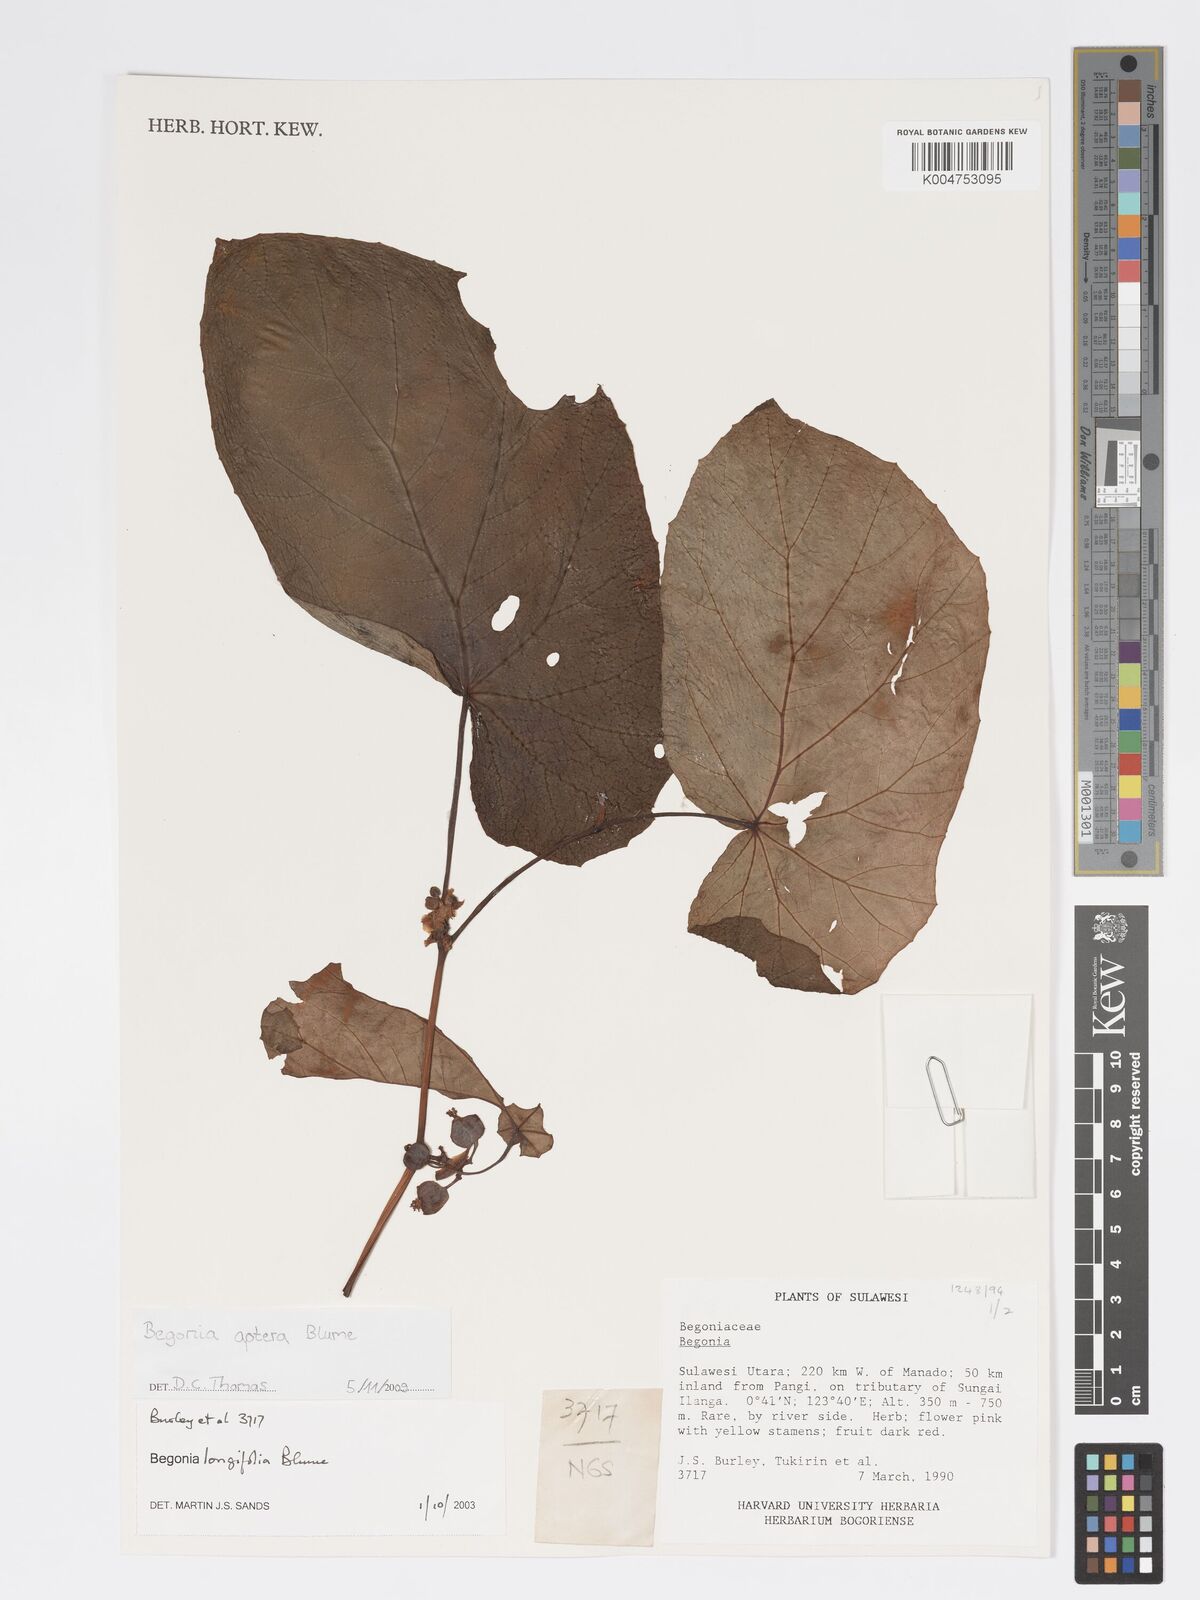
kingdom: Plantae
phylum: Tracheophyta
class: Magnoliopsida
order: Cucurbitales
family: Begoniaceae
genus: Begonia
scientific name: Begonia
